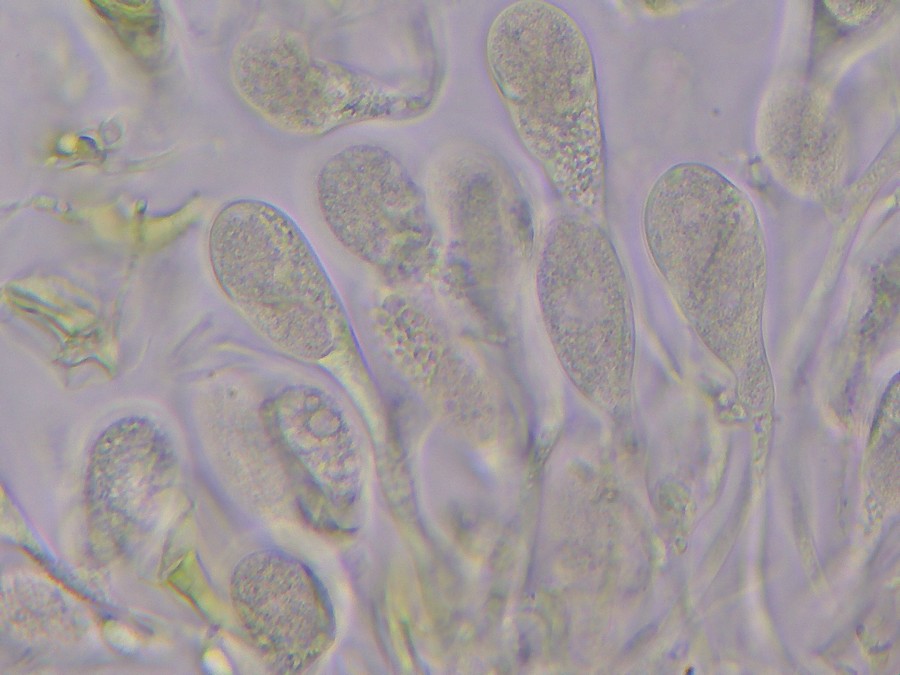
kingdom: Fungi
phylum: Basidiomycota
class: Tremellomycetes
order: Tremellales
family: Tremellaceae
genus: Tremella
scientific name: Tremella exigua
